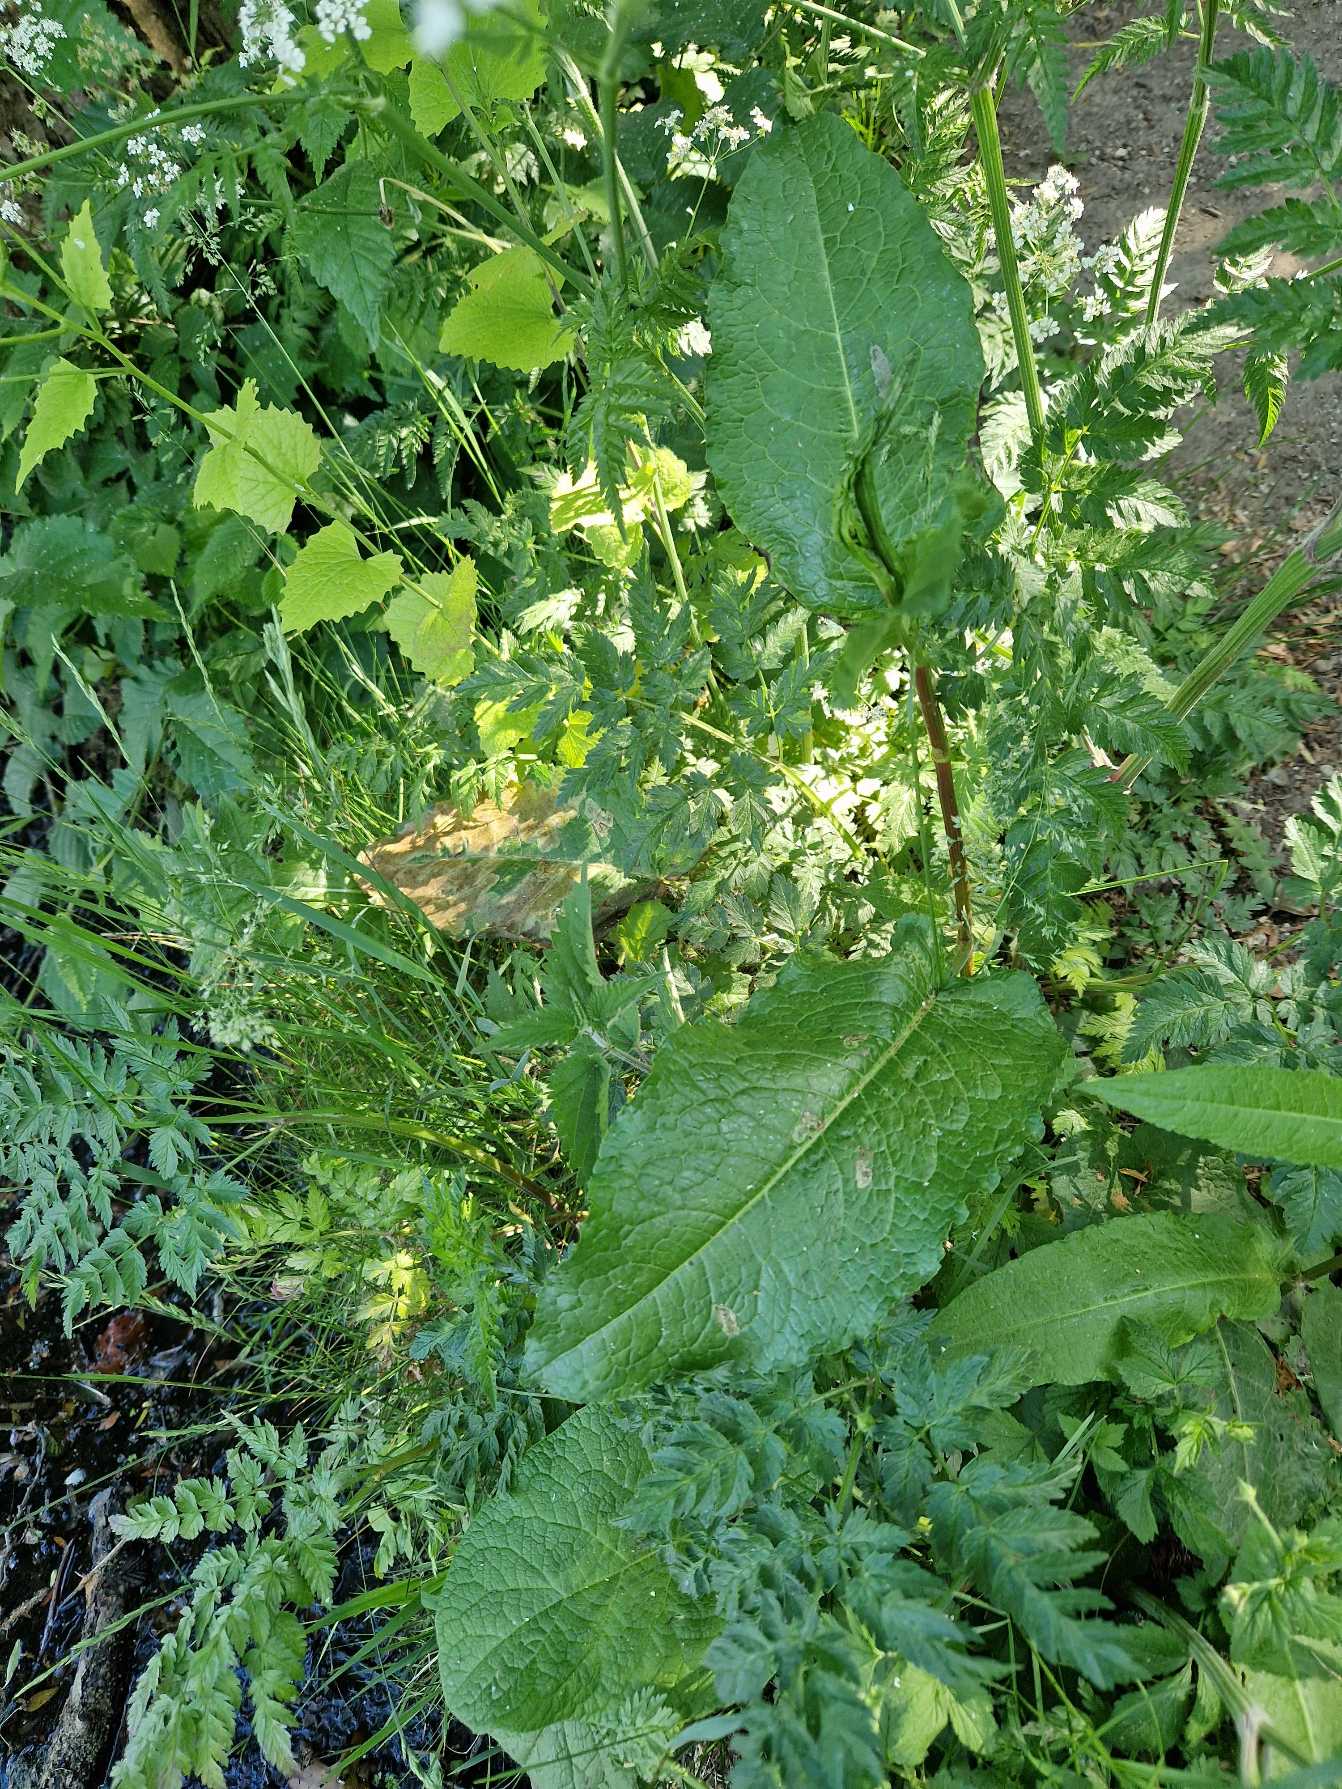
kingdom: Plantae
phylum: Tracheophyta
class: Magnoliopsida
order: Caryophyllales
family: Polygonaceae
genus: Rumex
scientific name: Rumex obtusifolius
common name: Butbladet skræppe
